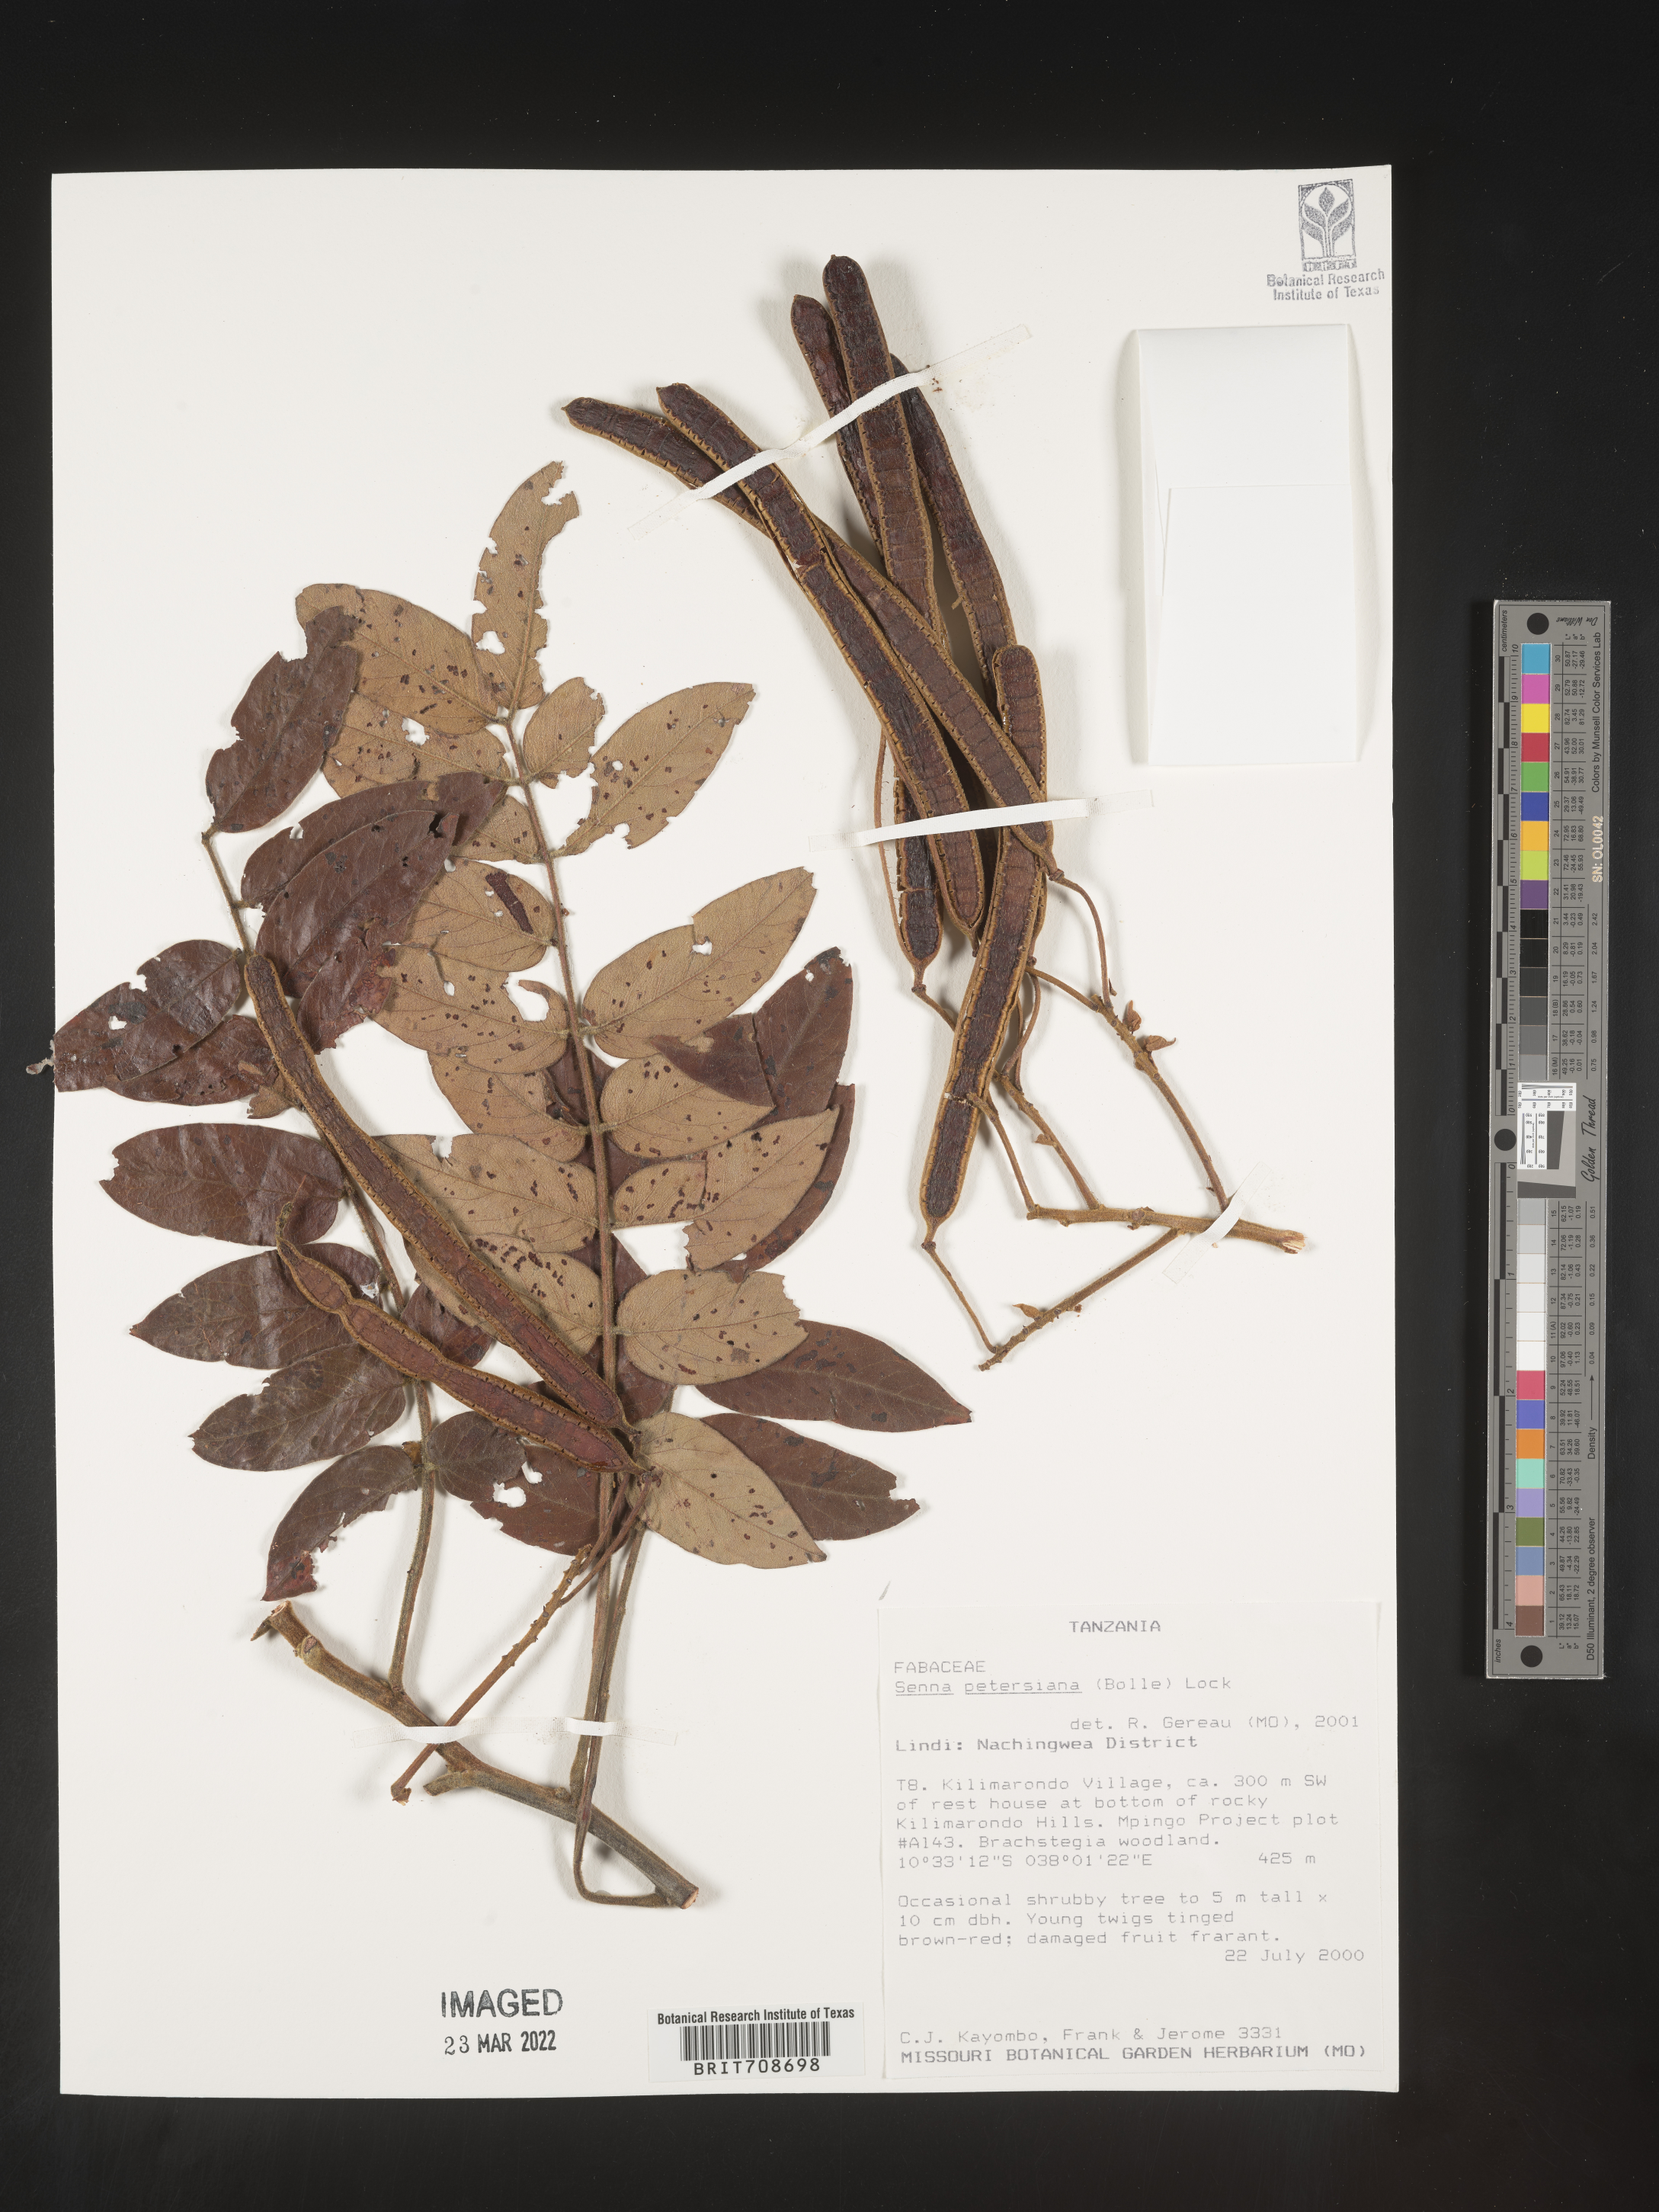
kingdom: Plantae
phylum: Tracheophyta
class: Magnoliopsida
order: Fabales
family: Fabaceae
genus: Senna
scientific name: Senna
